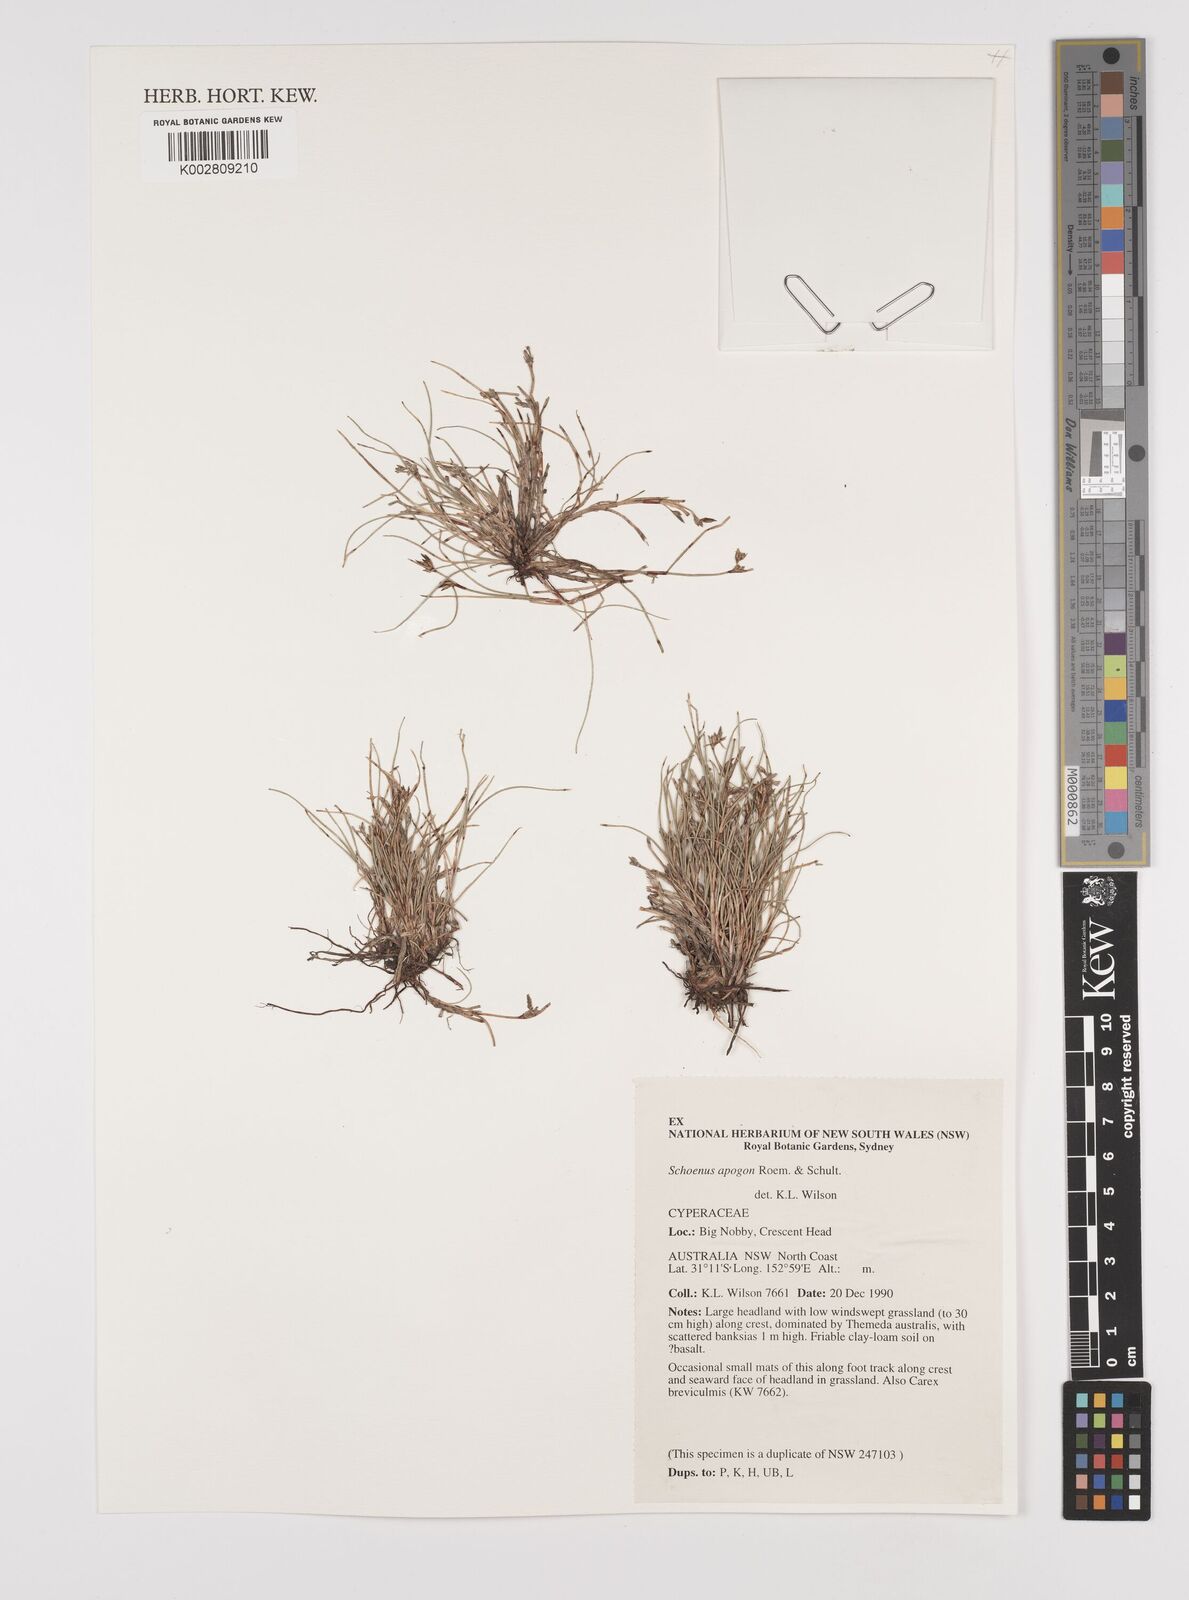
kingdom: Plantae
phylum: Tracheophyta
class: Liliopsida
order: Poales
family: Cyperaceae
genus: Schoenus
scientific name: Schoenus apogon
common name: Smooth bogrush
